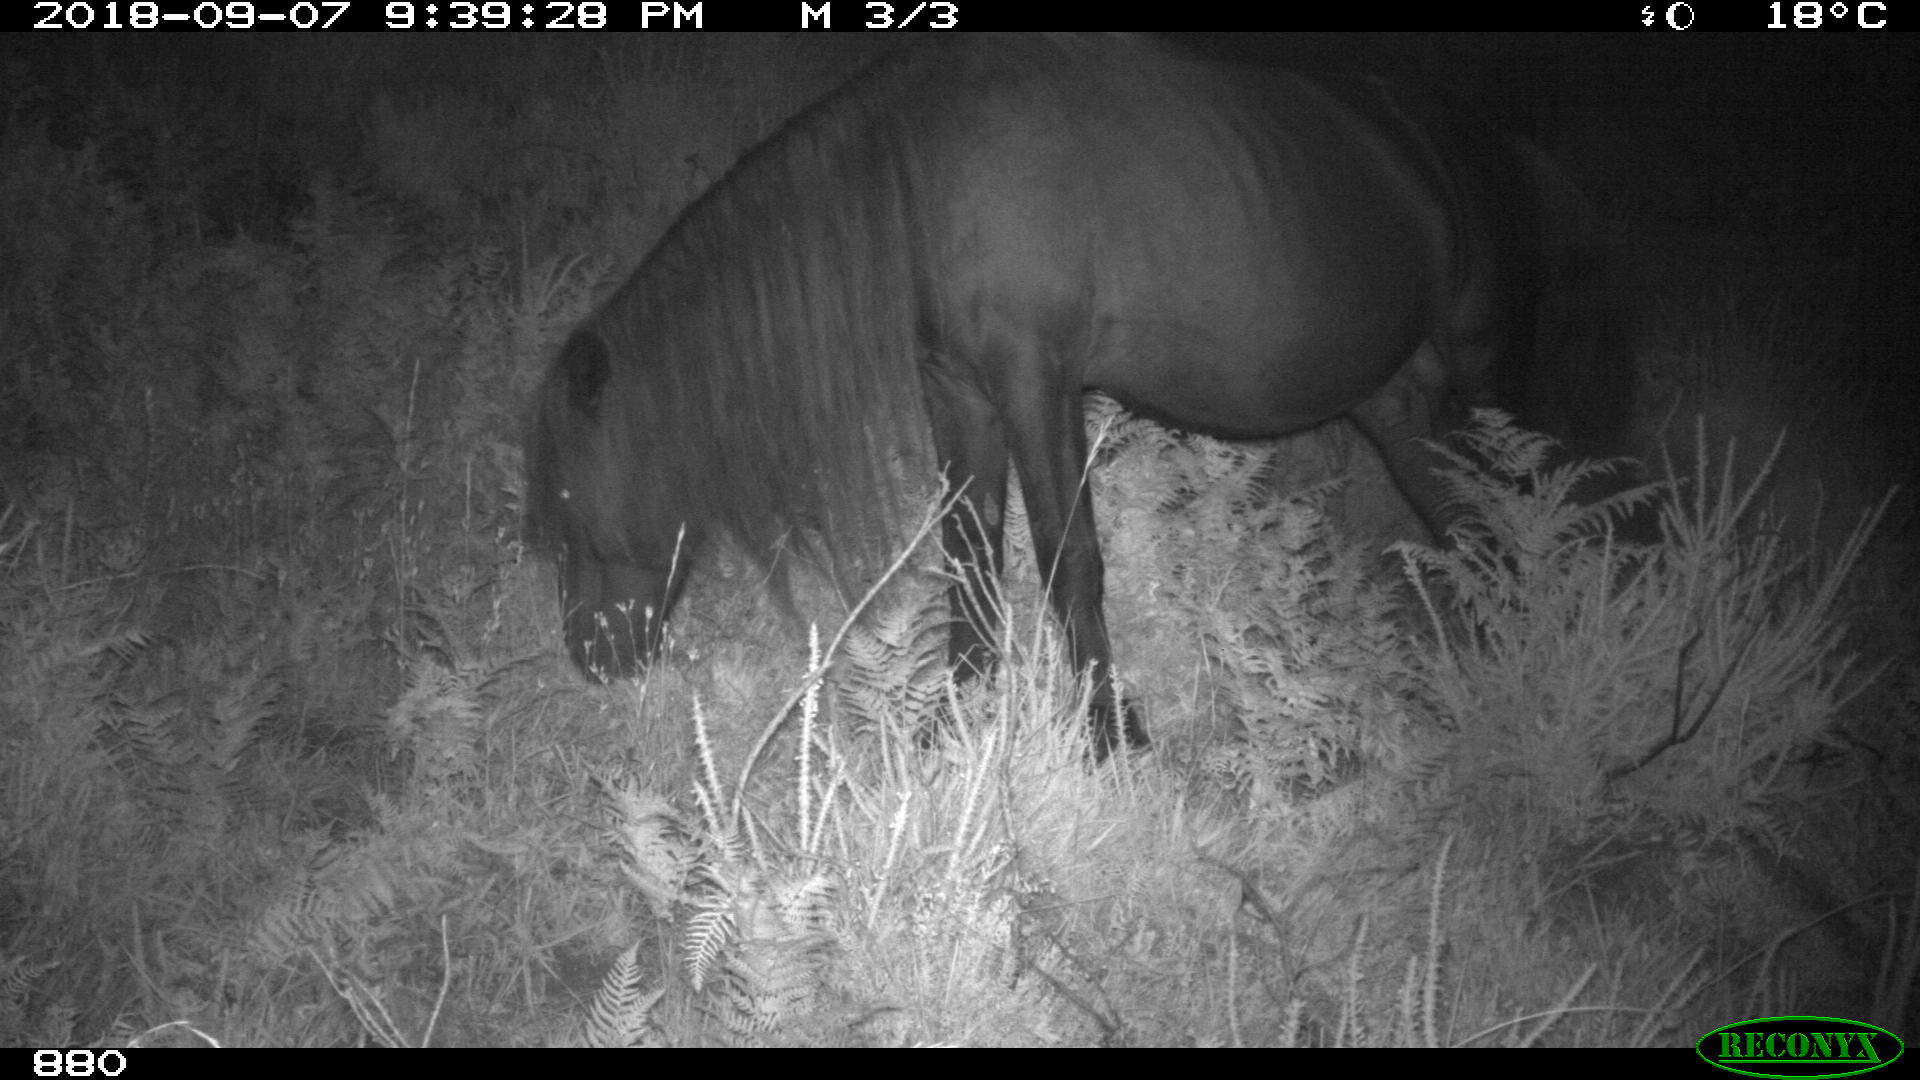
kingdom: Animalia
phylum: Chordata
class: Mammalia
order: Perissodactyla
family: Equidae
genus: Equus
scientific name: Equus caballus
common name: Horse
